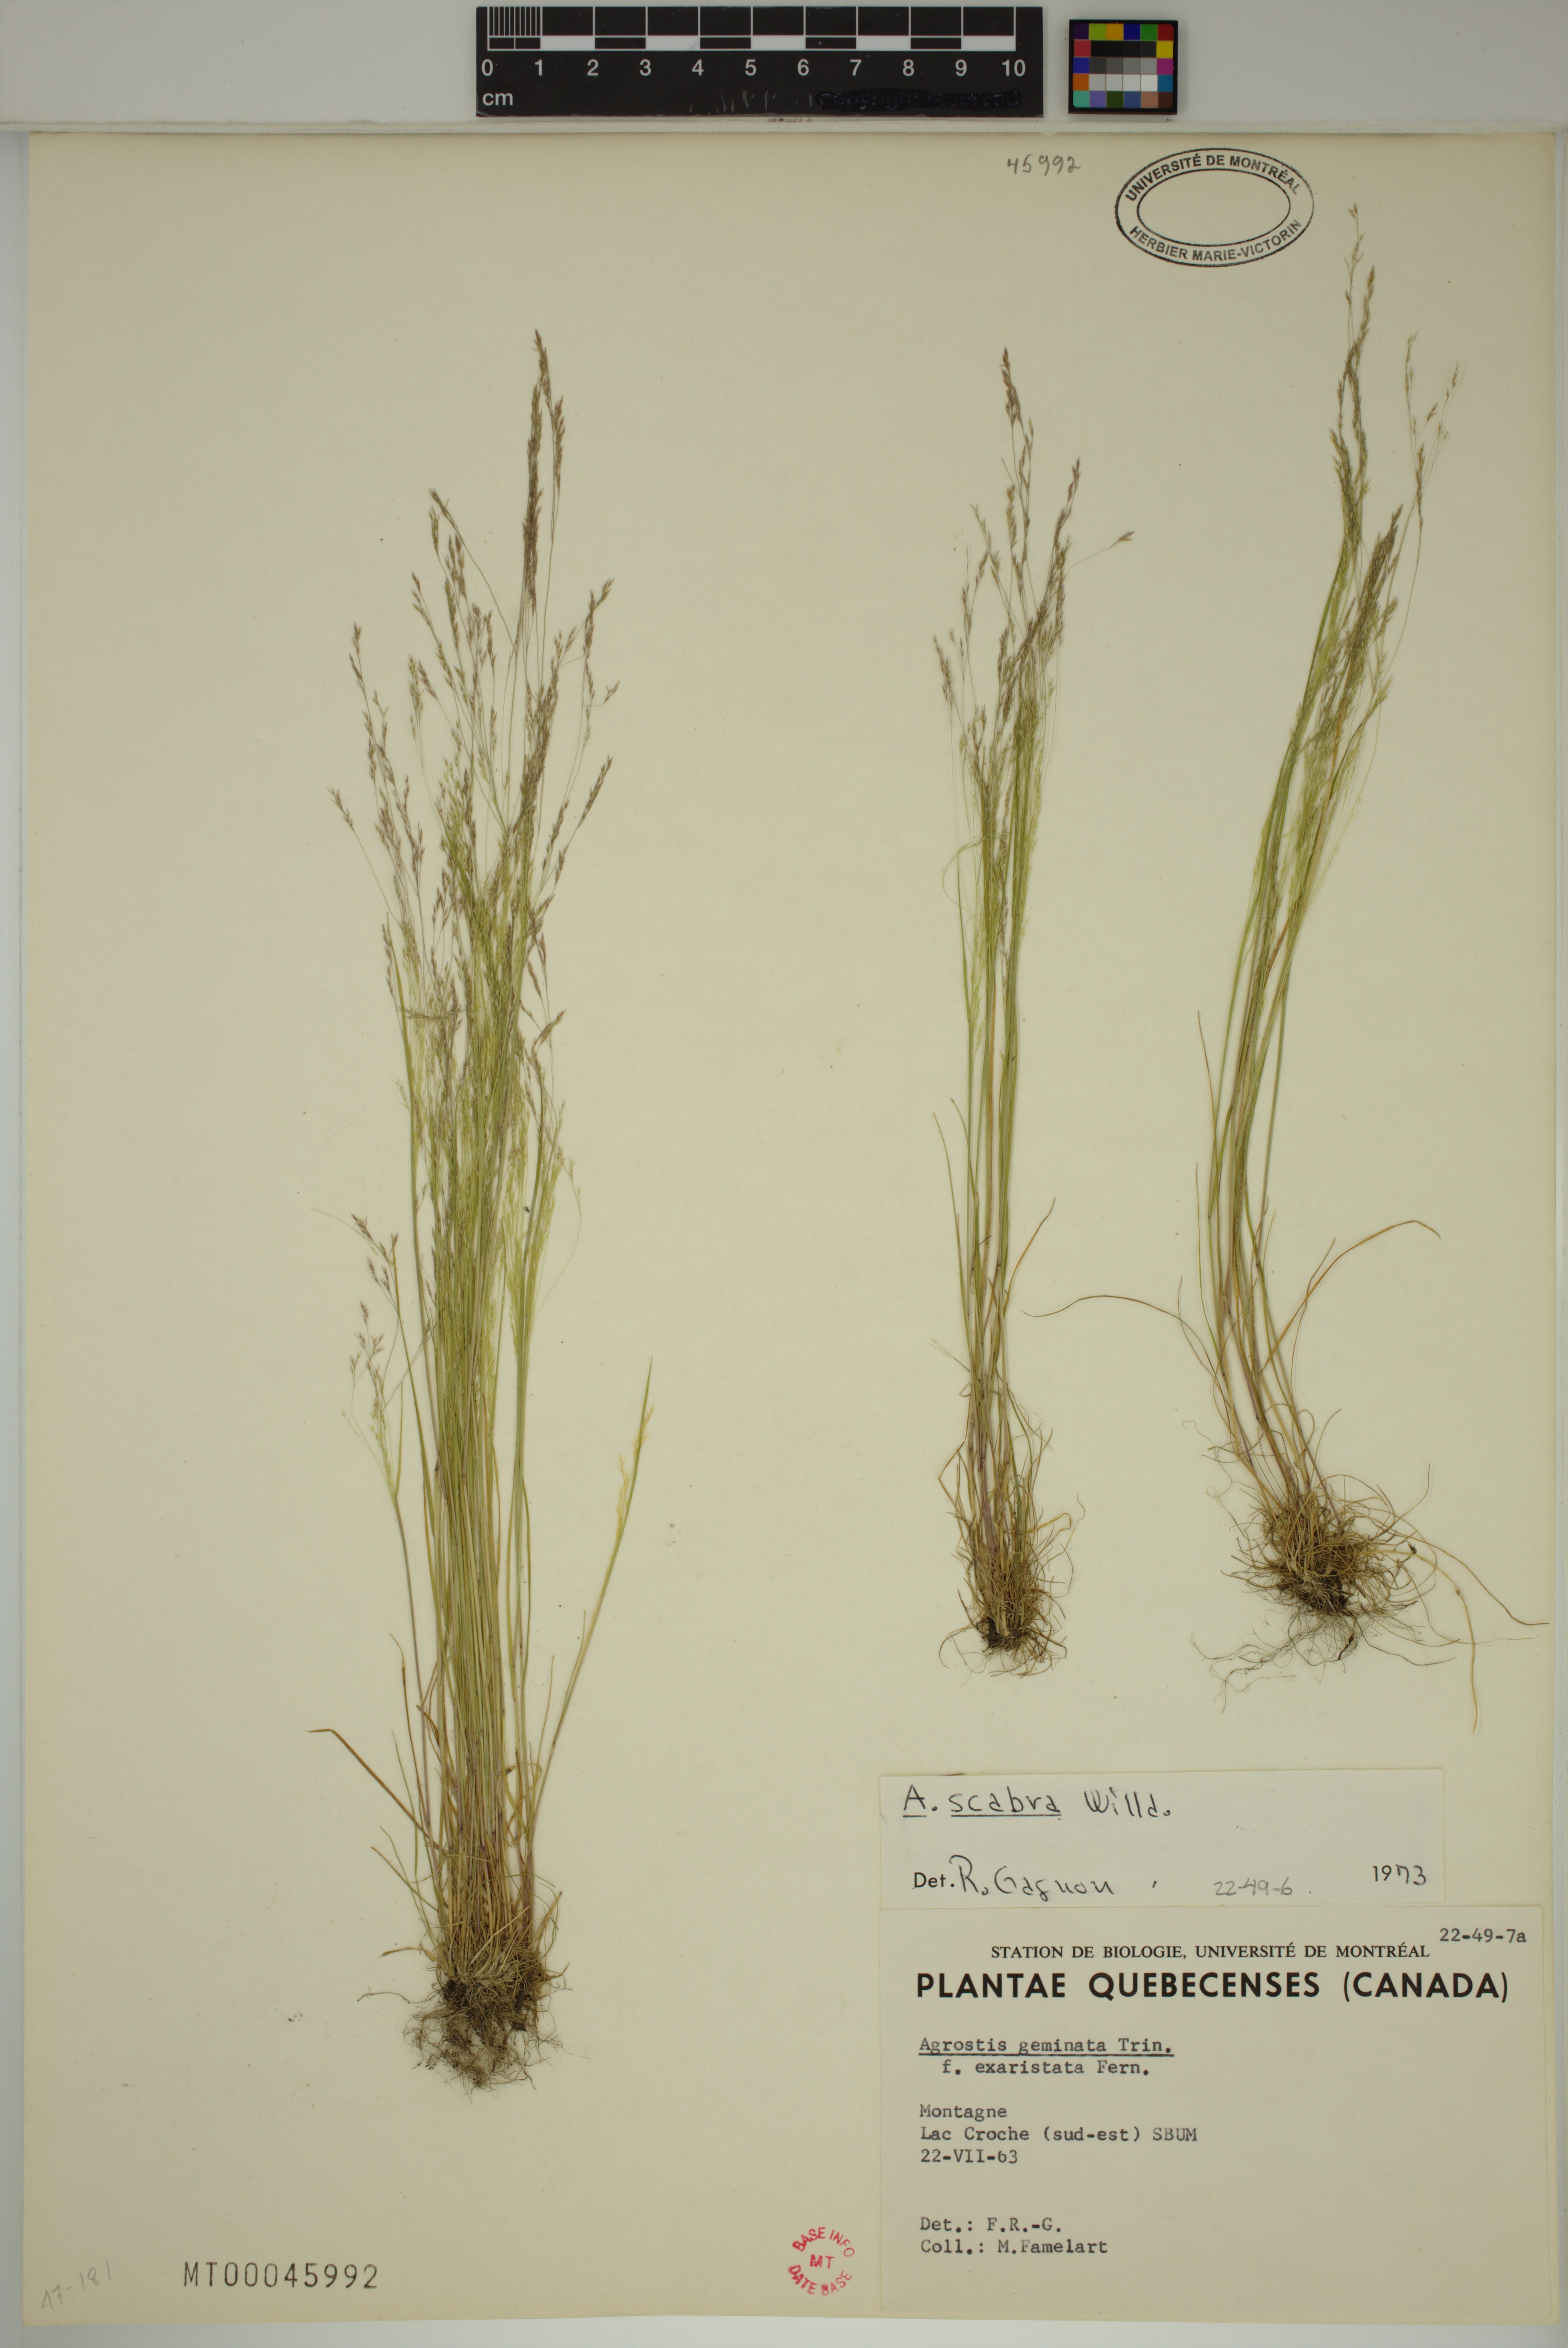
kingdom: Plantae
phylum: Tracheophyta
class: Liliopsida
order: Poales
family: Poaceae
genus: Agrostis
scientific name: Agrostis scabra
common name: Rough bent
